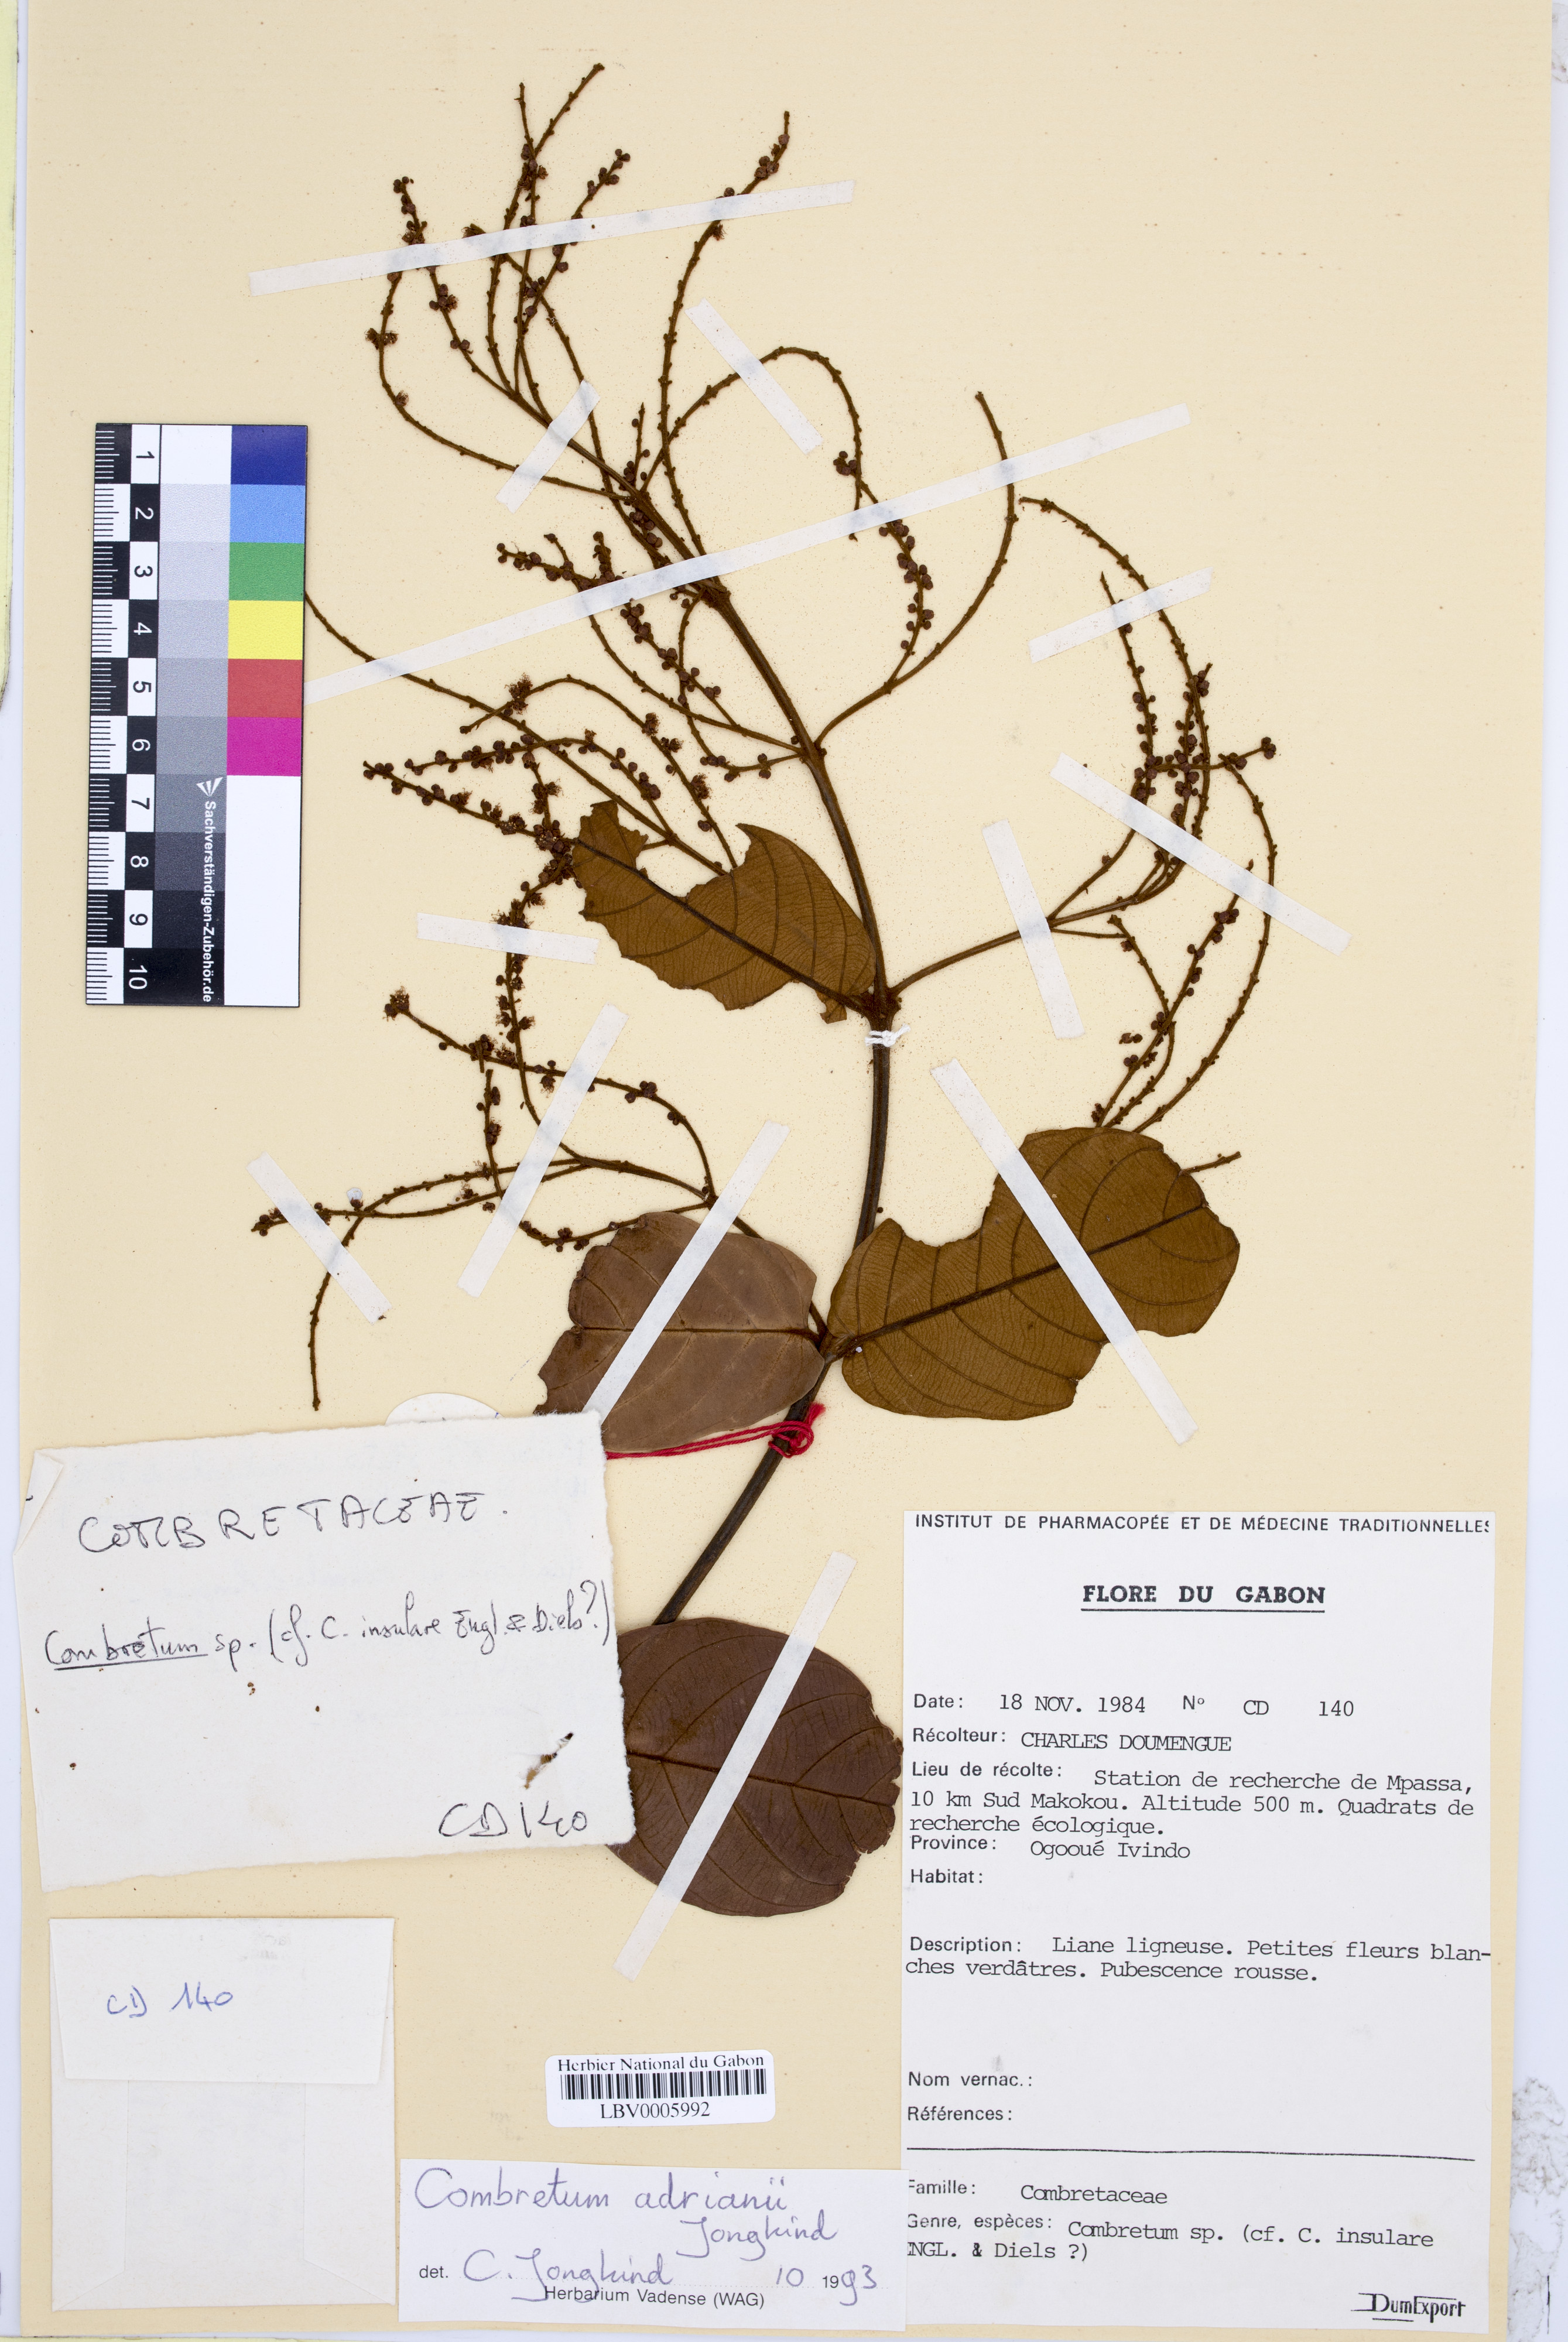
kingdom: Plantae
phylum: Tracheophyta
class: Magnoliopsida
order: Myrtales
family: Combretaceae
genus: Combretum
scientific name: Combretum adrianii
